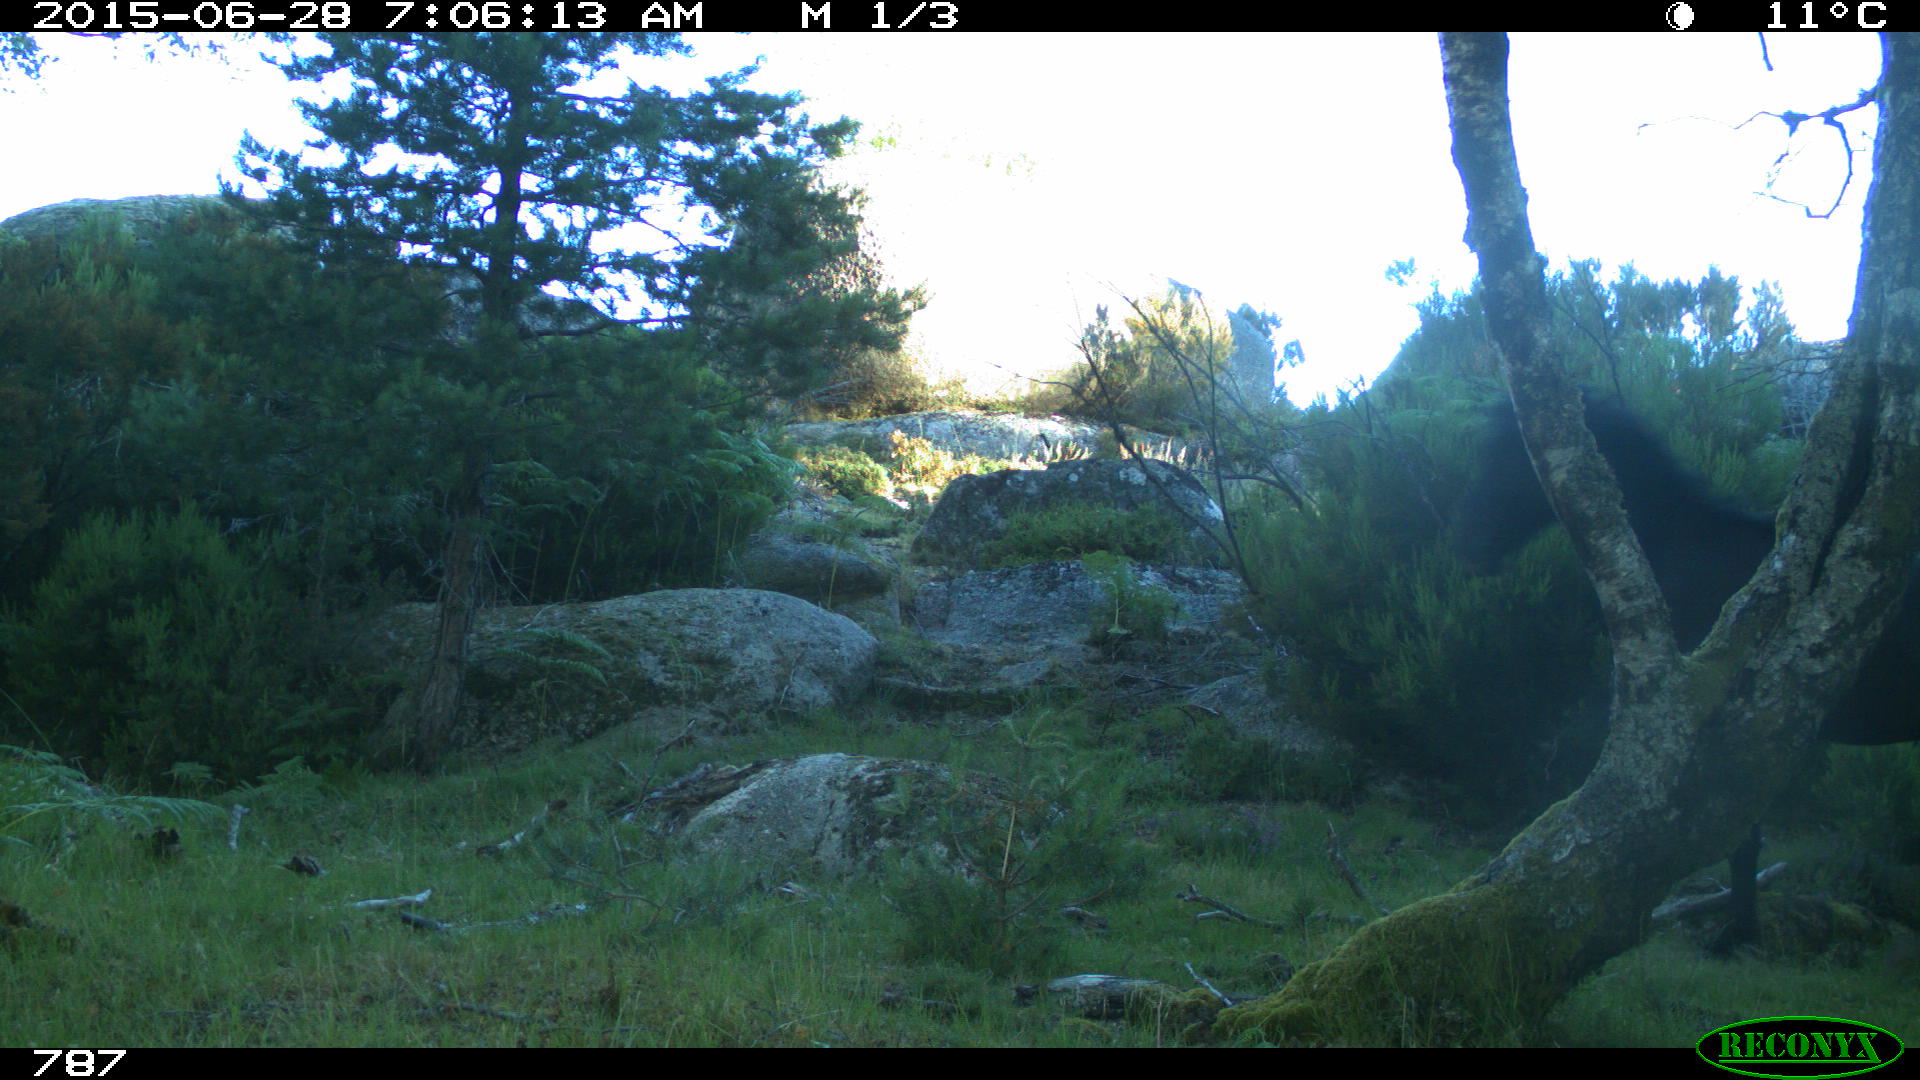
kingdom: Animalia
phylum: Chordata
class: Mammalia
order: Perissodactyla
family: Equidae
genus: Equus
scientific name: Equus caballus
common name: Horse
